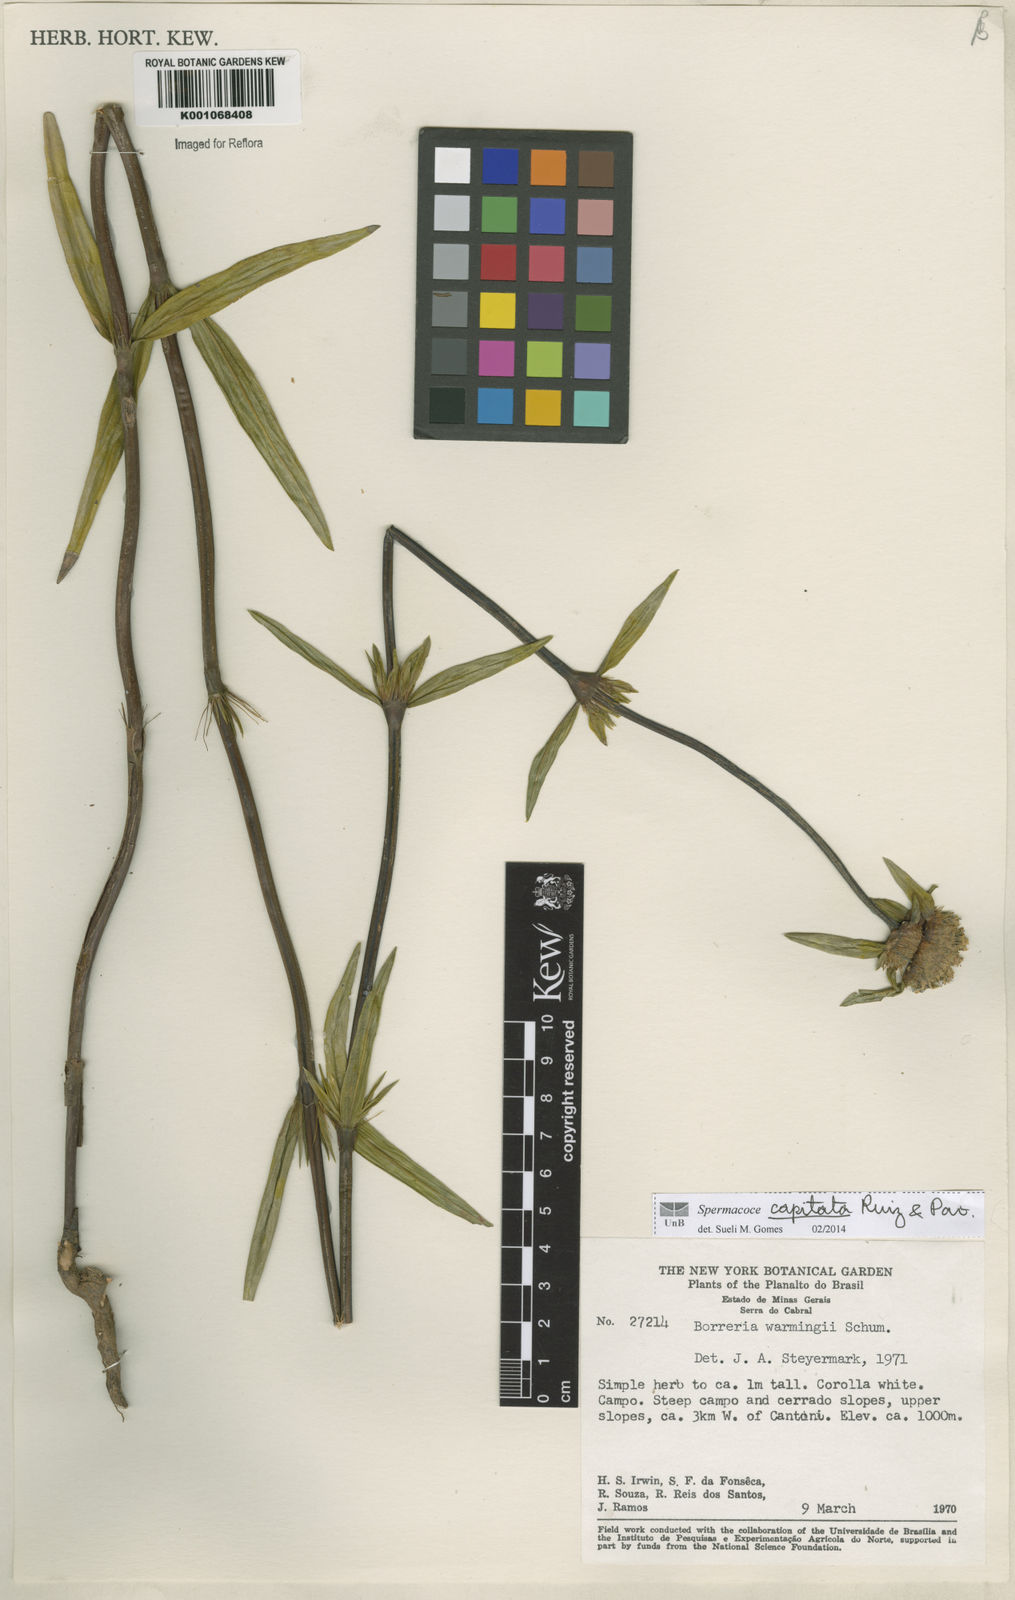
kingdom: Plantae
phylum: Tracheophyta
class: Magnoliopsida
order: Gentianales
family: Rubiaceae
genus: Spermacoce
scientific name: Spermacoce capitata
